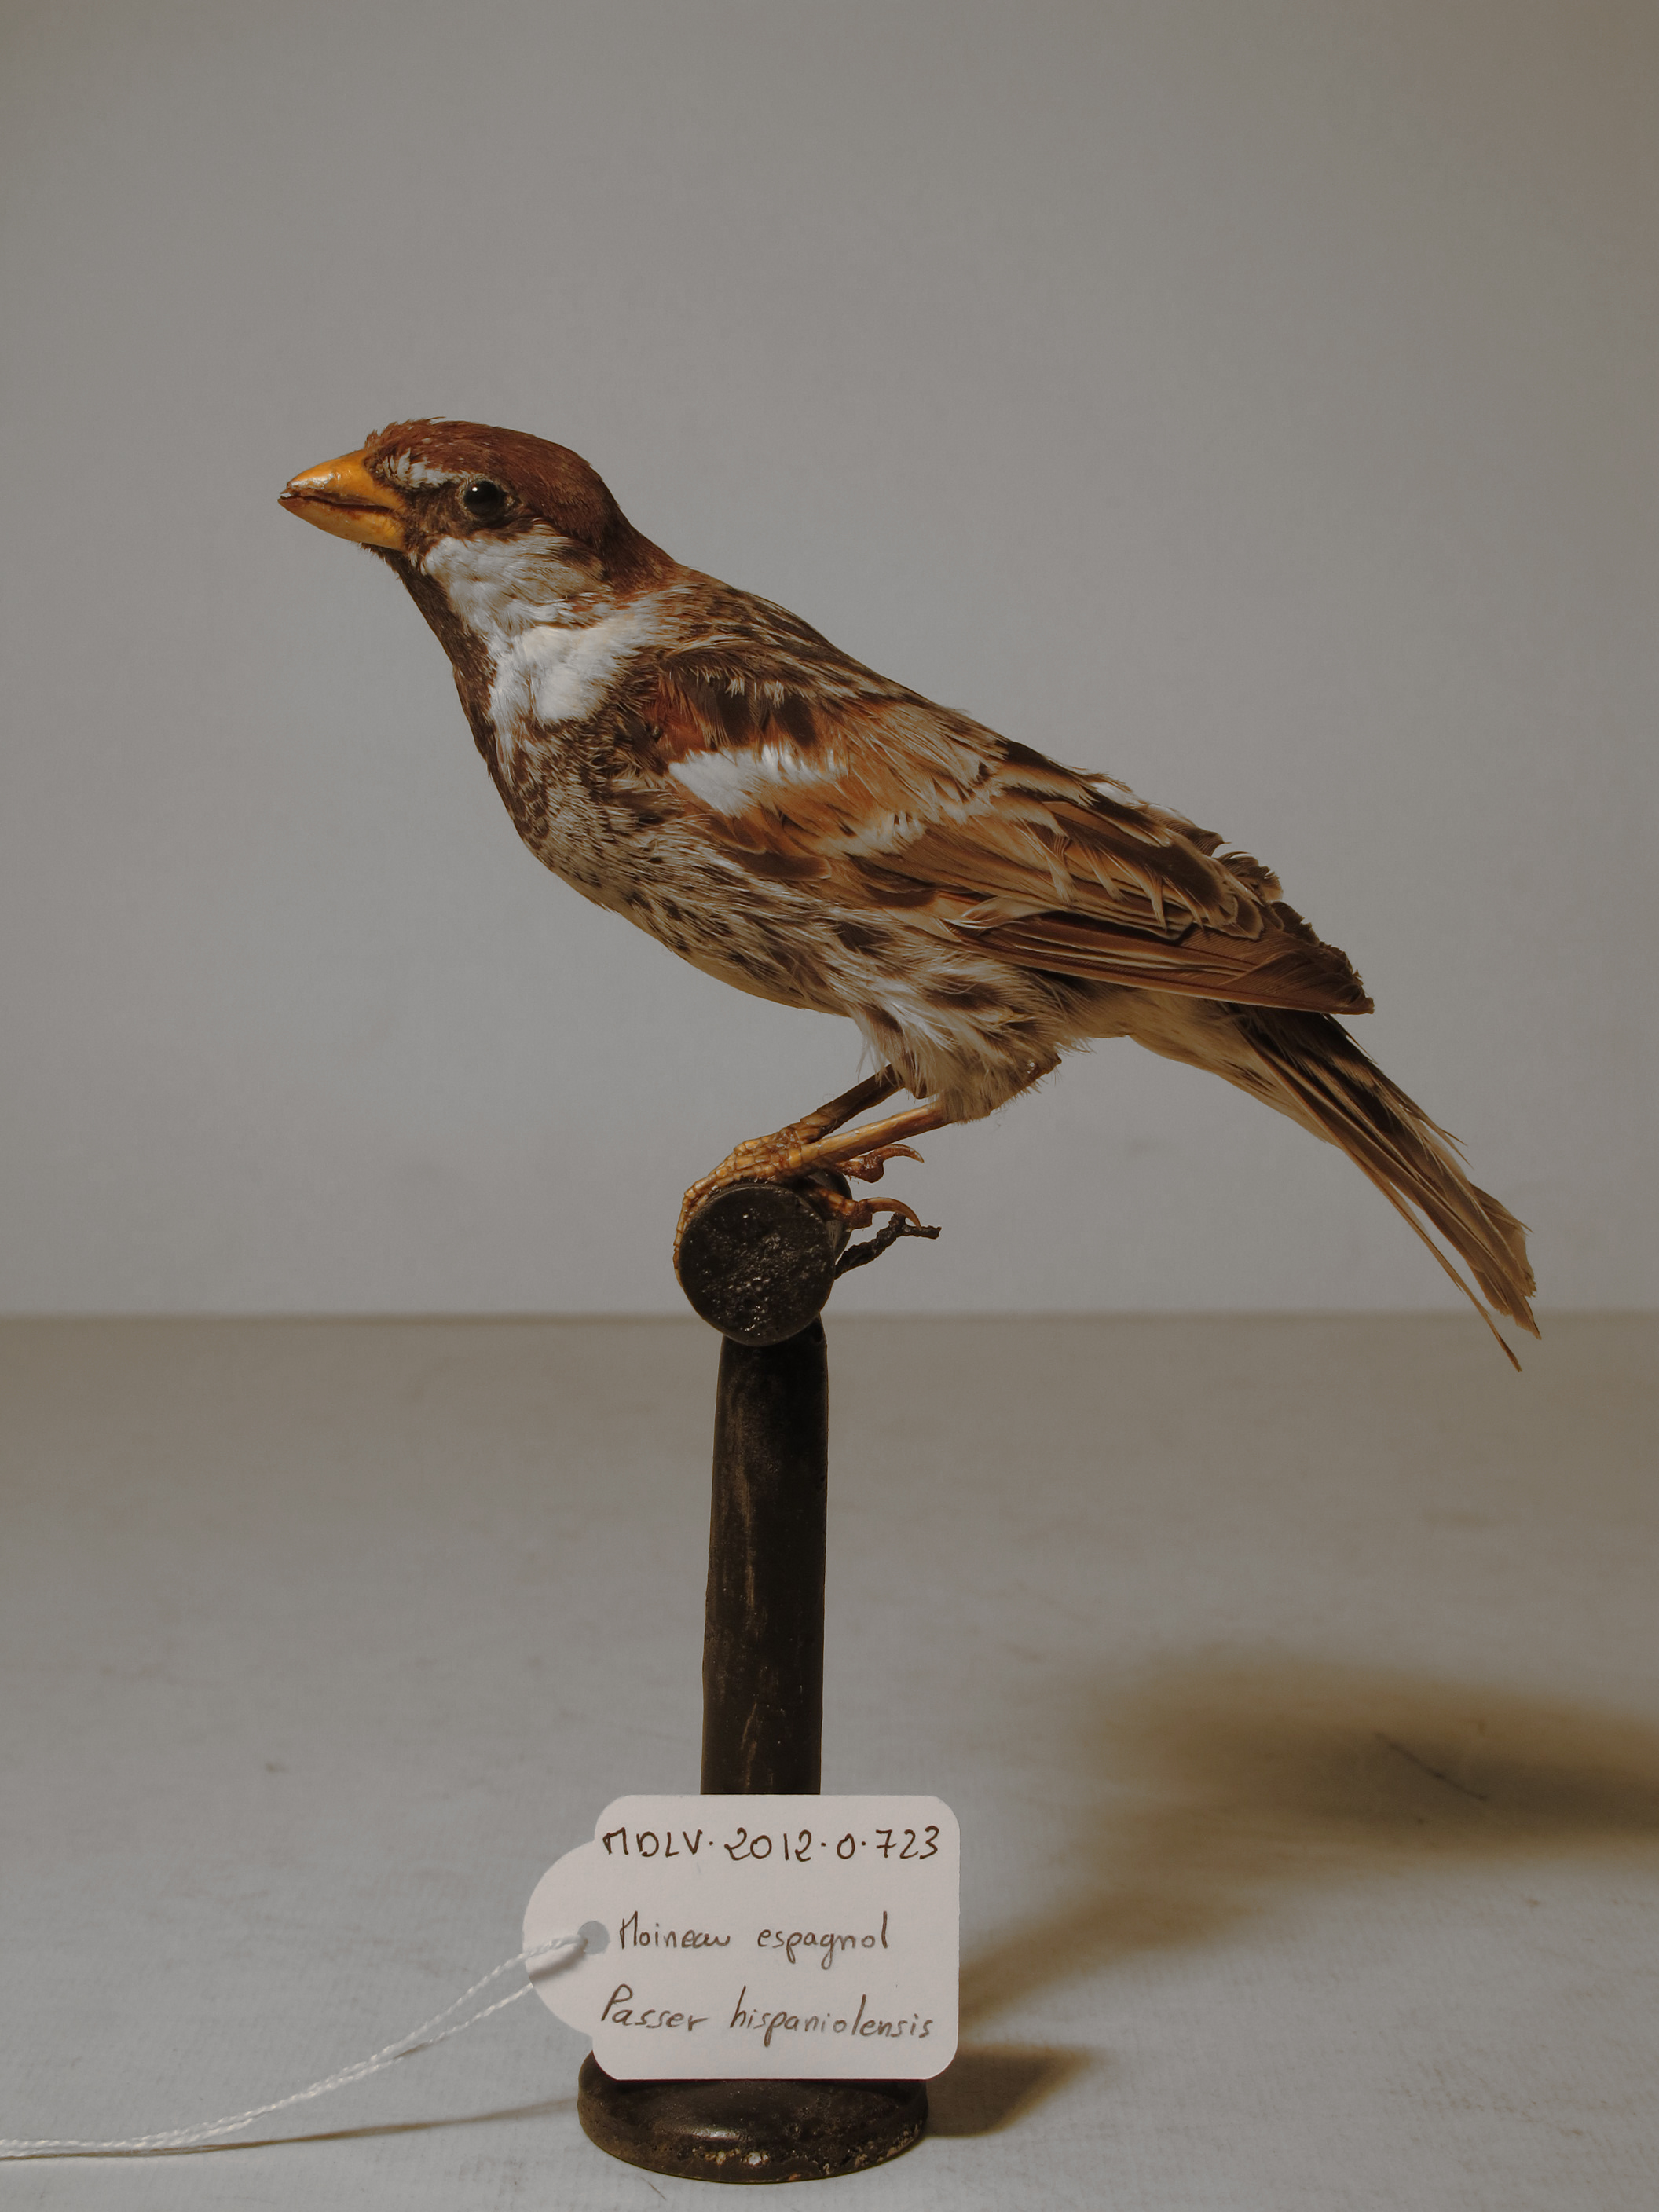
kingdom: Animalia
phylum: Chordata
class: Aves
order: Passeriformes
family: Passeridae
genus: Passer
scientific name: Passer hispaniolensis
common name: Spanish Sparrow
